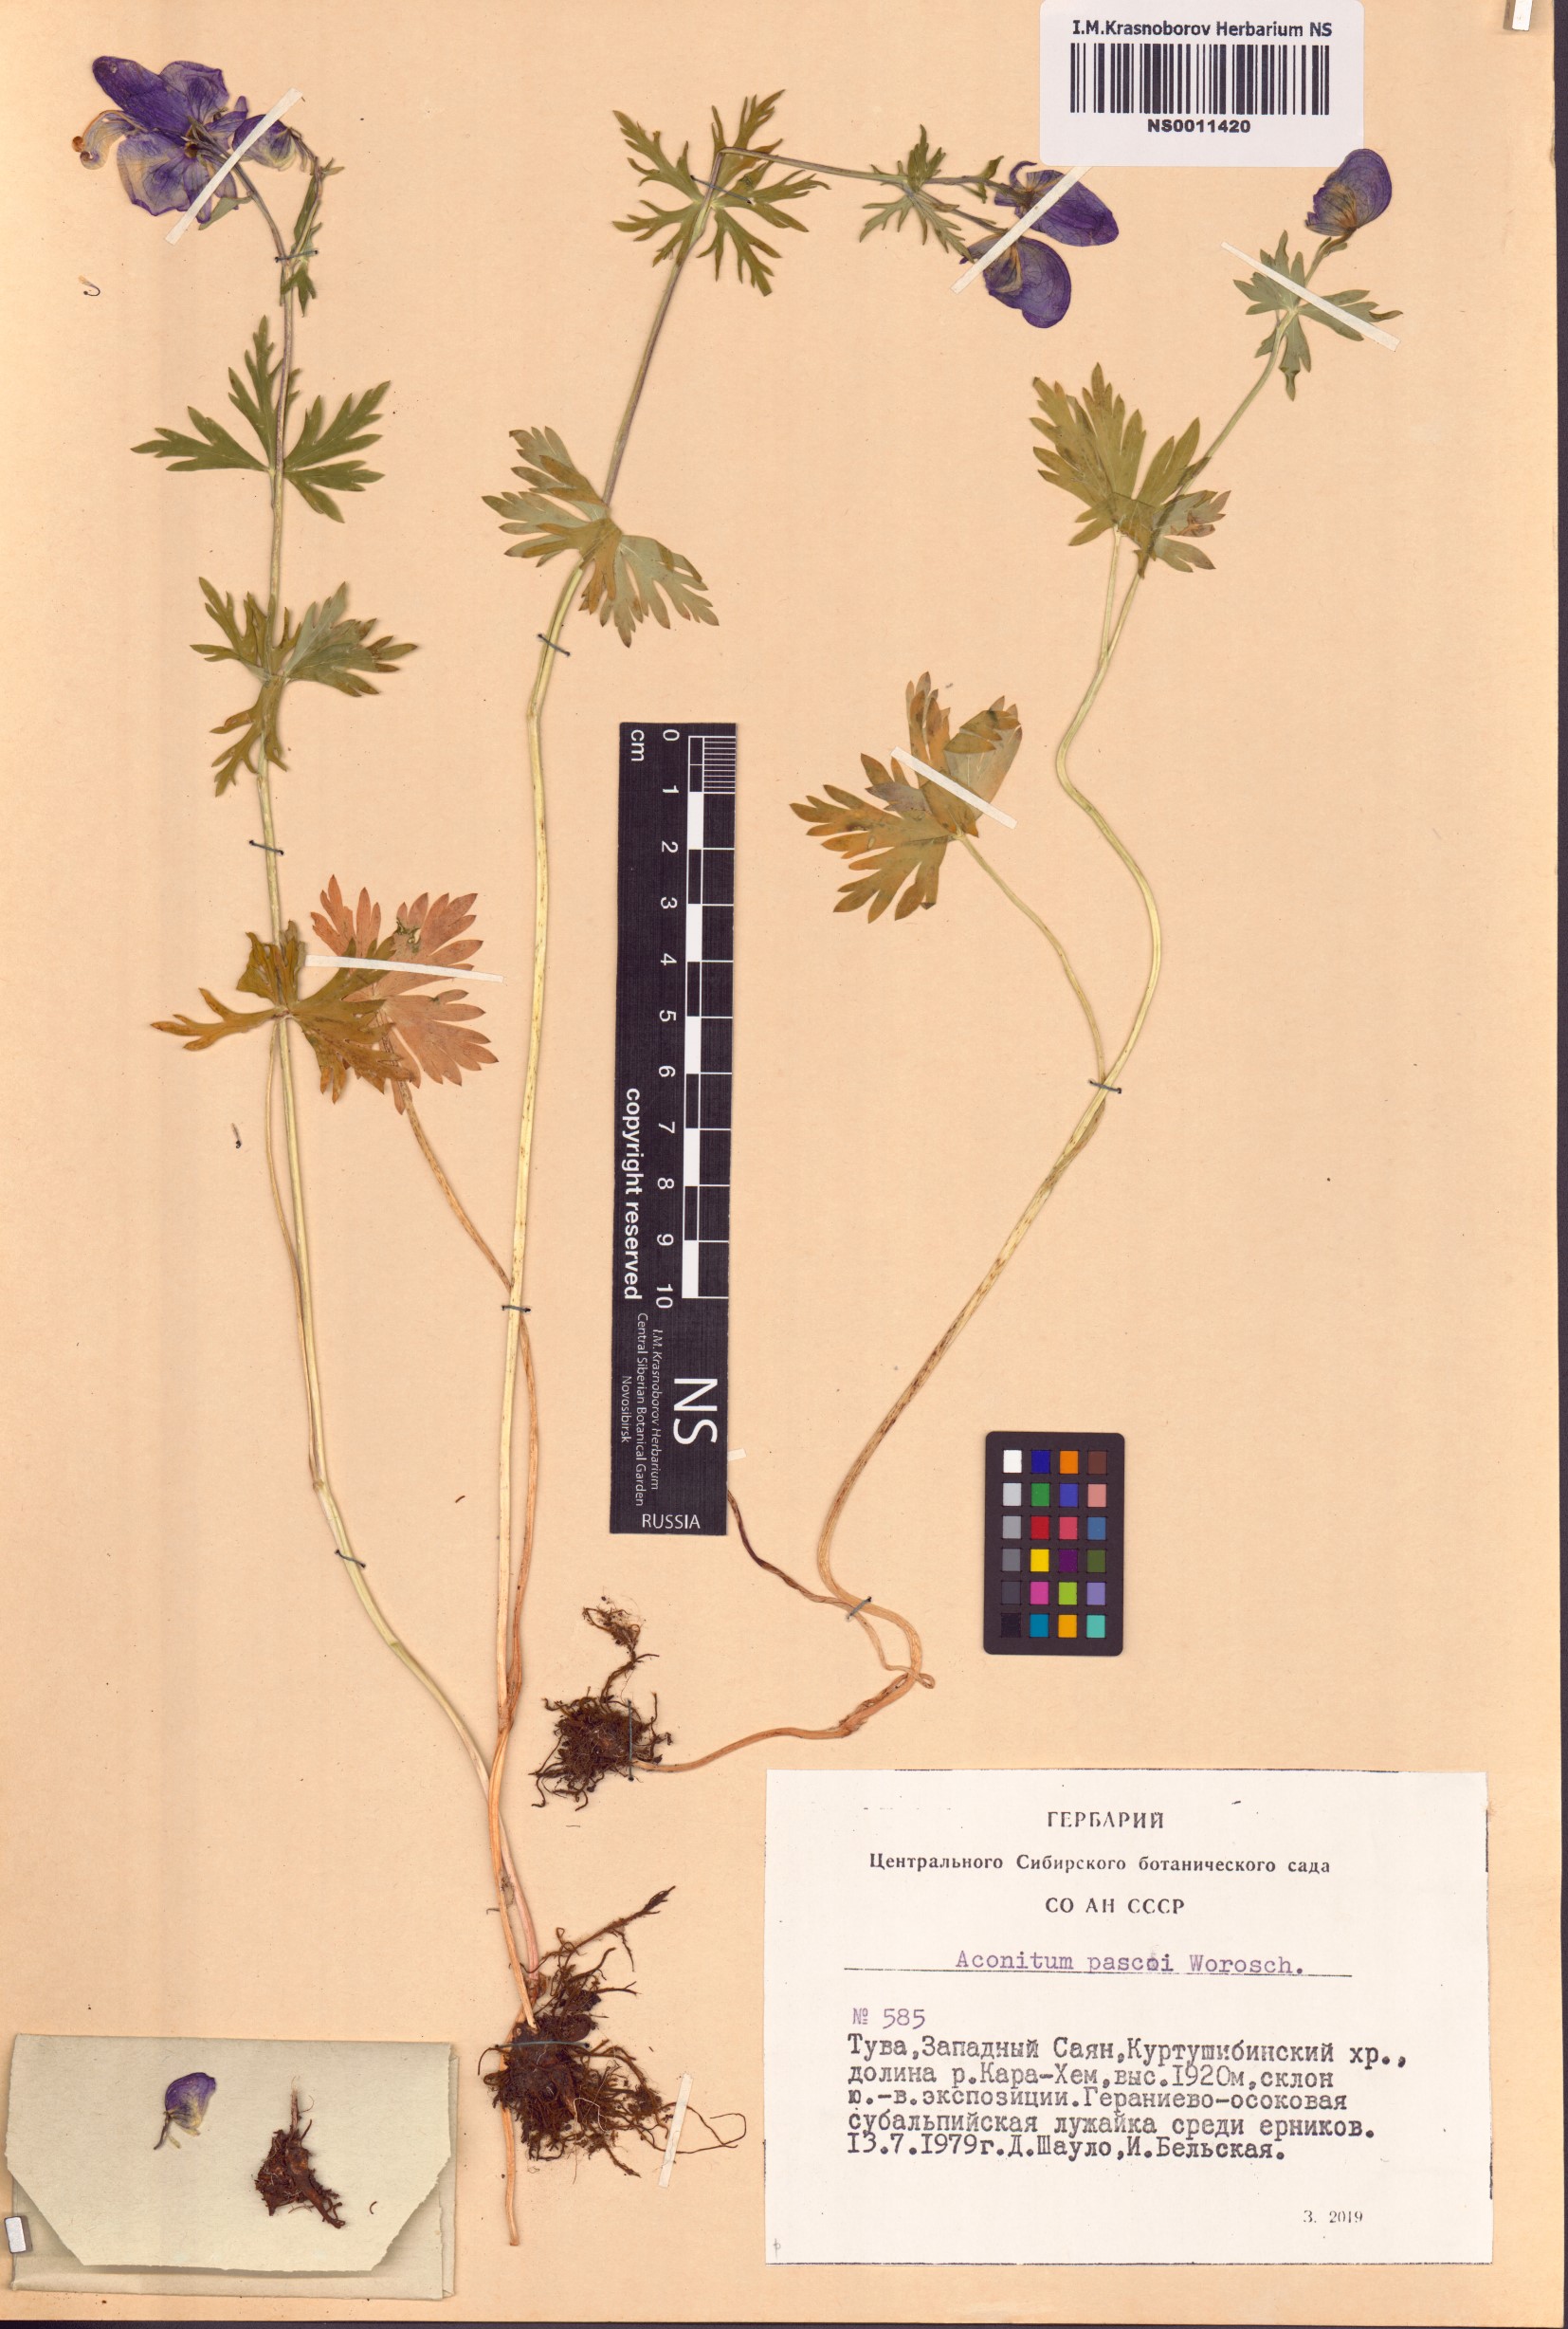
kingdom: Plantae
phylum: Tracheophyta
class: Magnoliopsida
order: Ranunculales
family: Ranunculaceae
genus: Aconitum
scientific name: Aconitum pascoi
